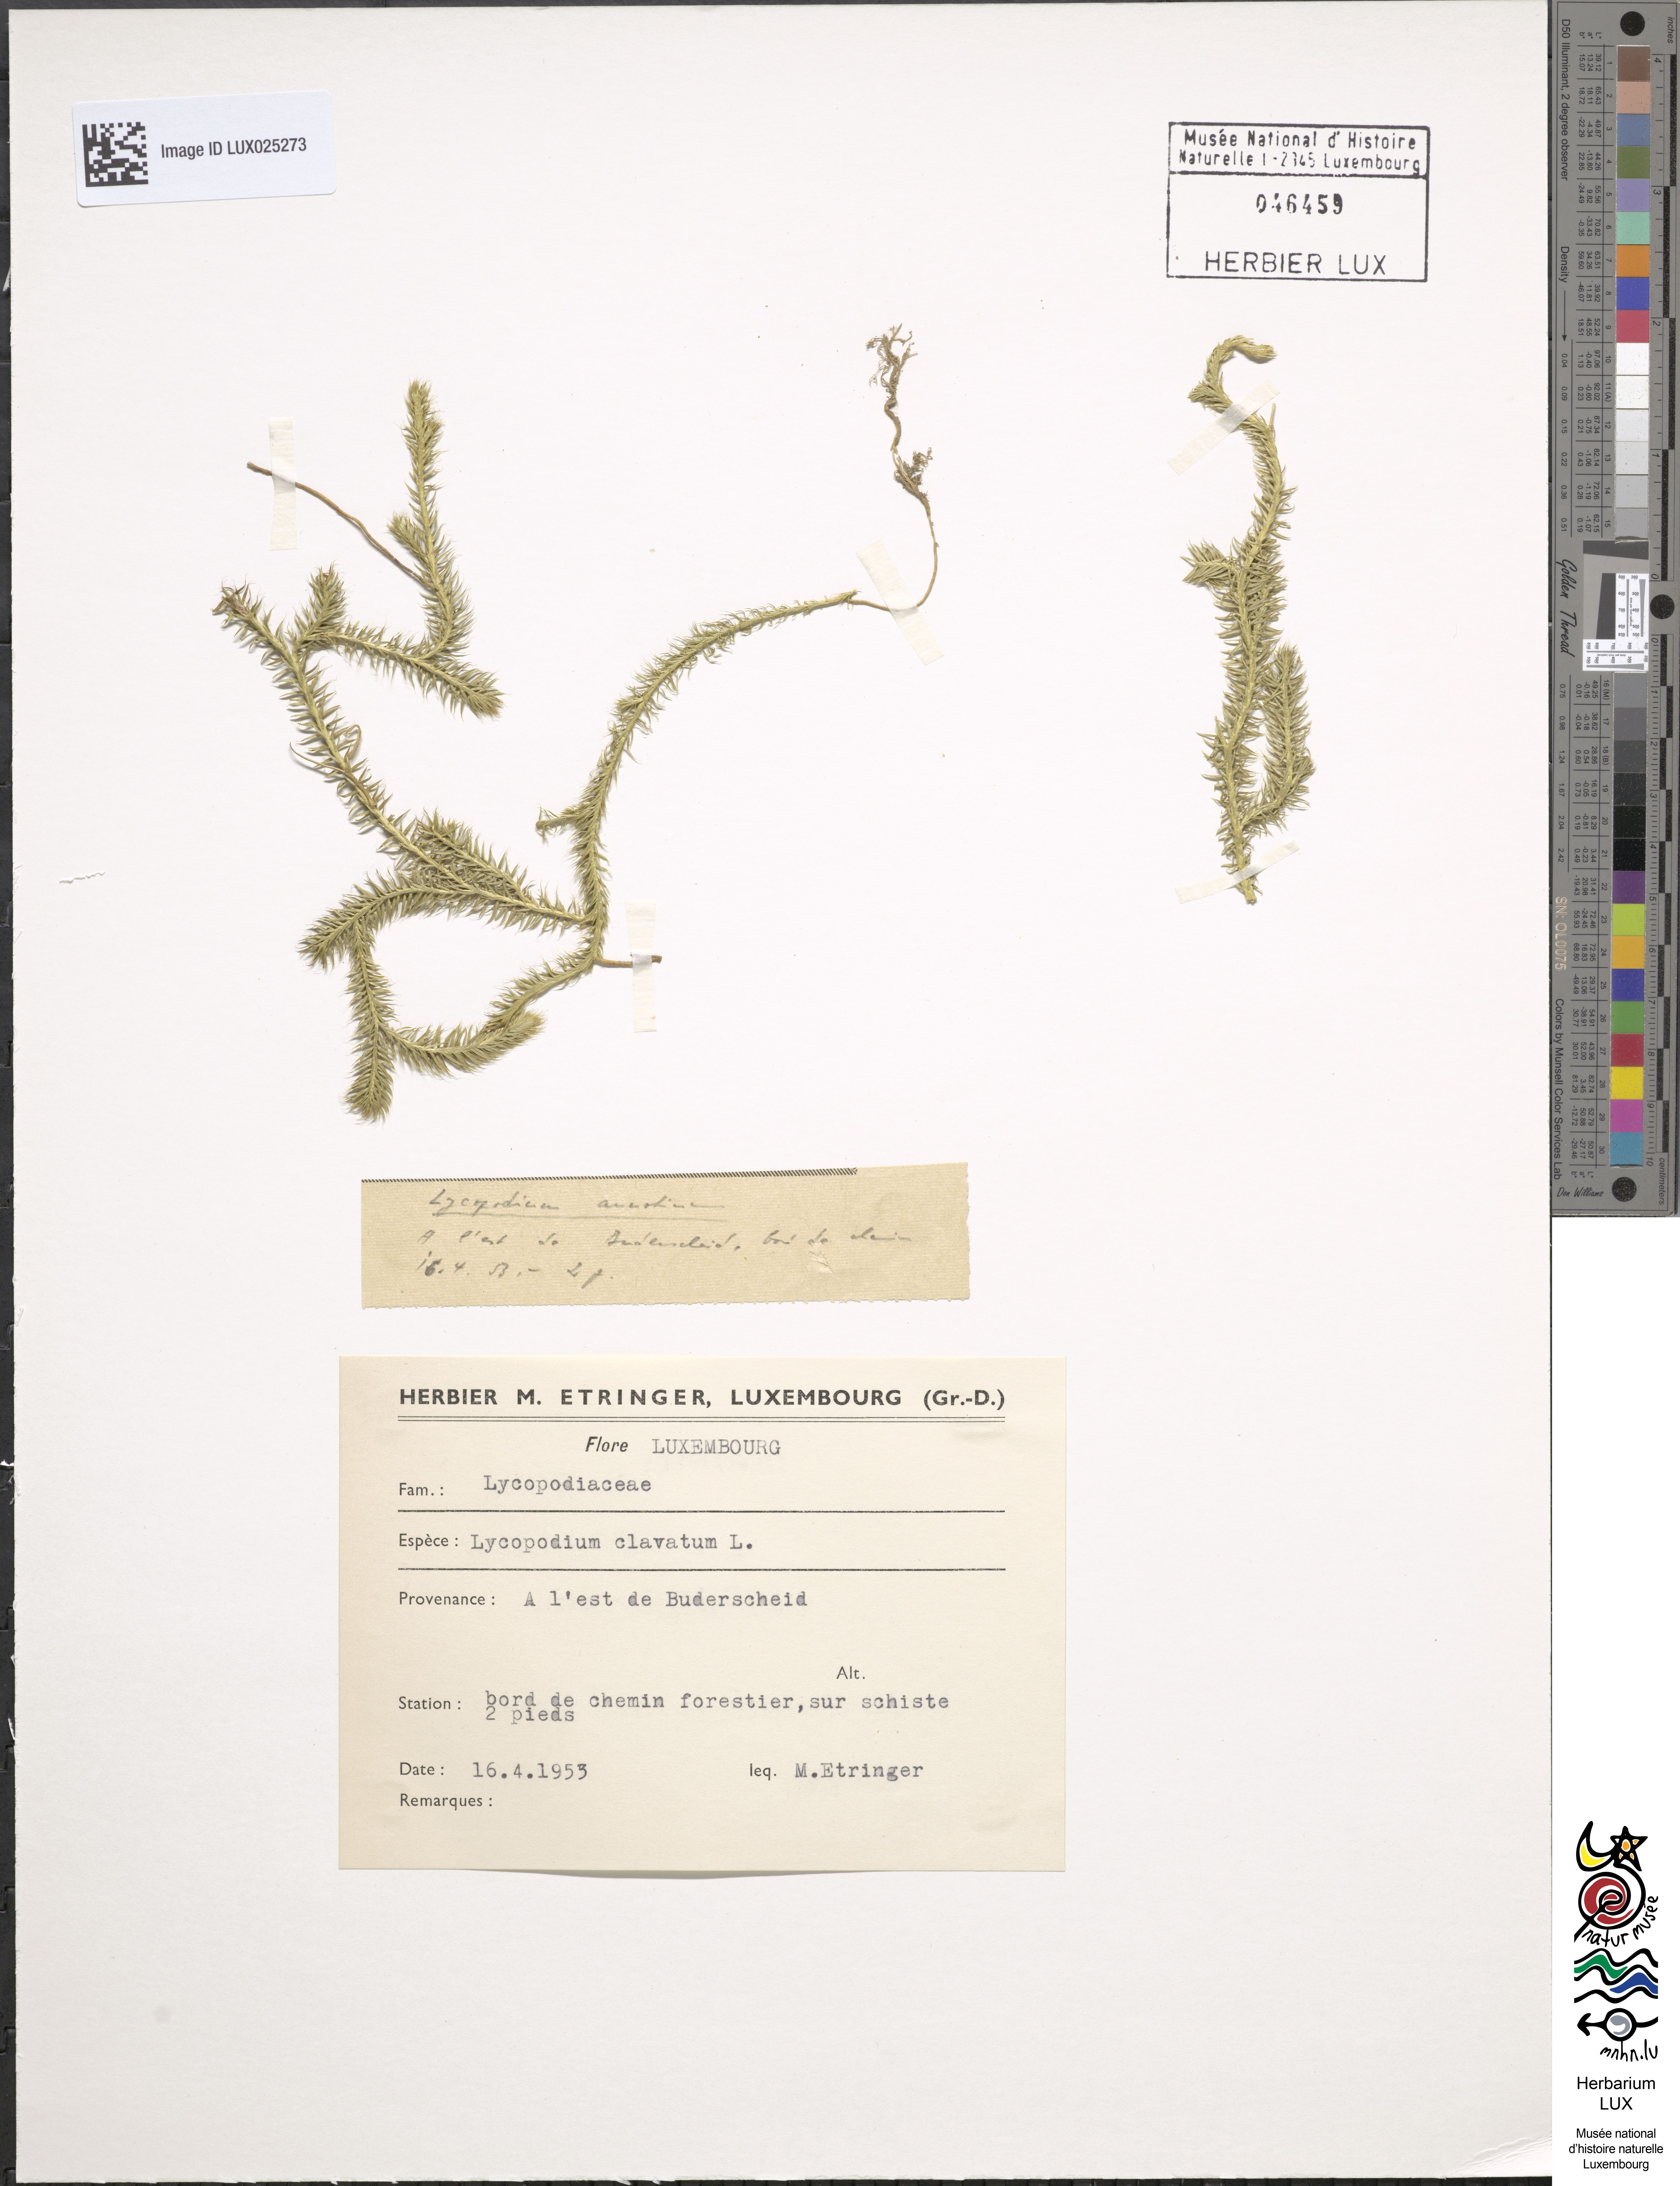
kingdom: Plantae
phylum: Tracheophyta
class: Lycopodiopsida
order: Lycopodiales
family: Lycopodiaceae
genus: Lycopodium
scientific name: Lycopodium clavatum
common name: Stag's-horn clubmoss
